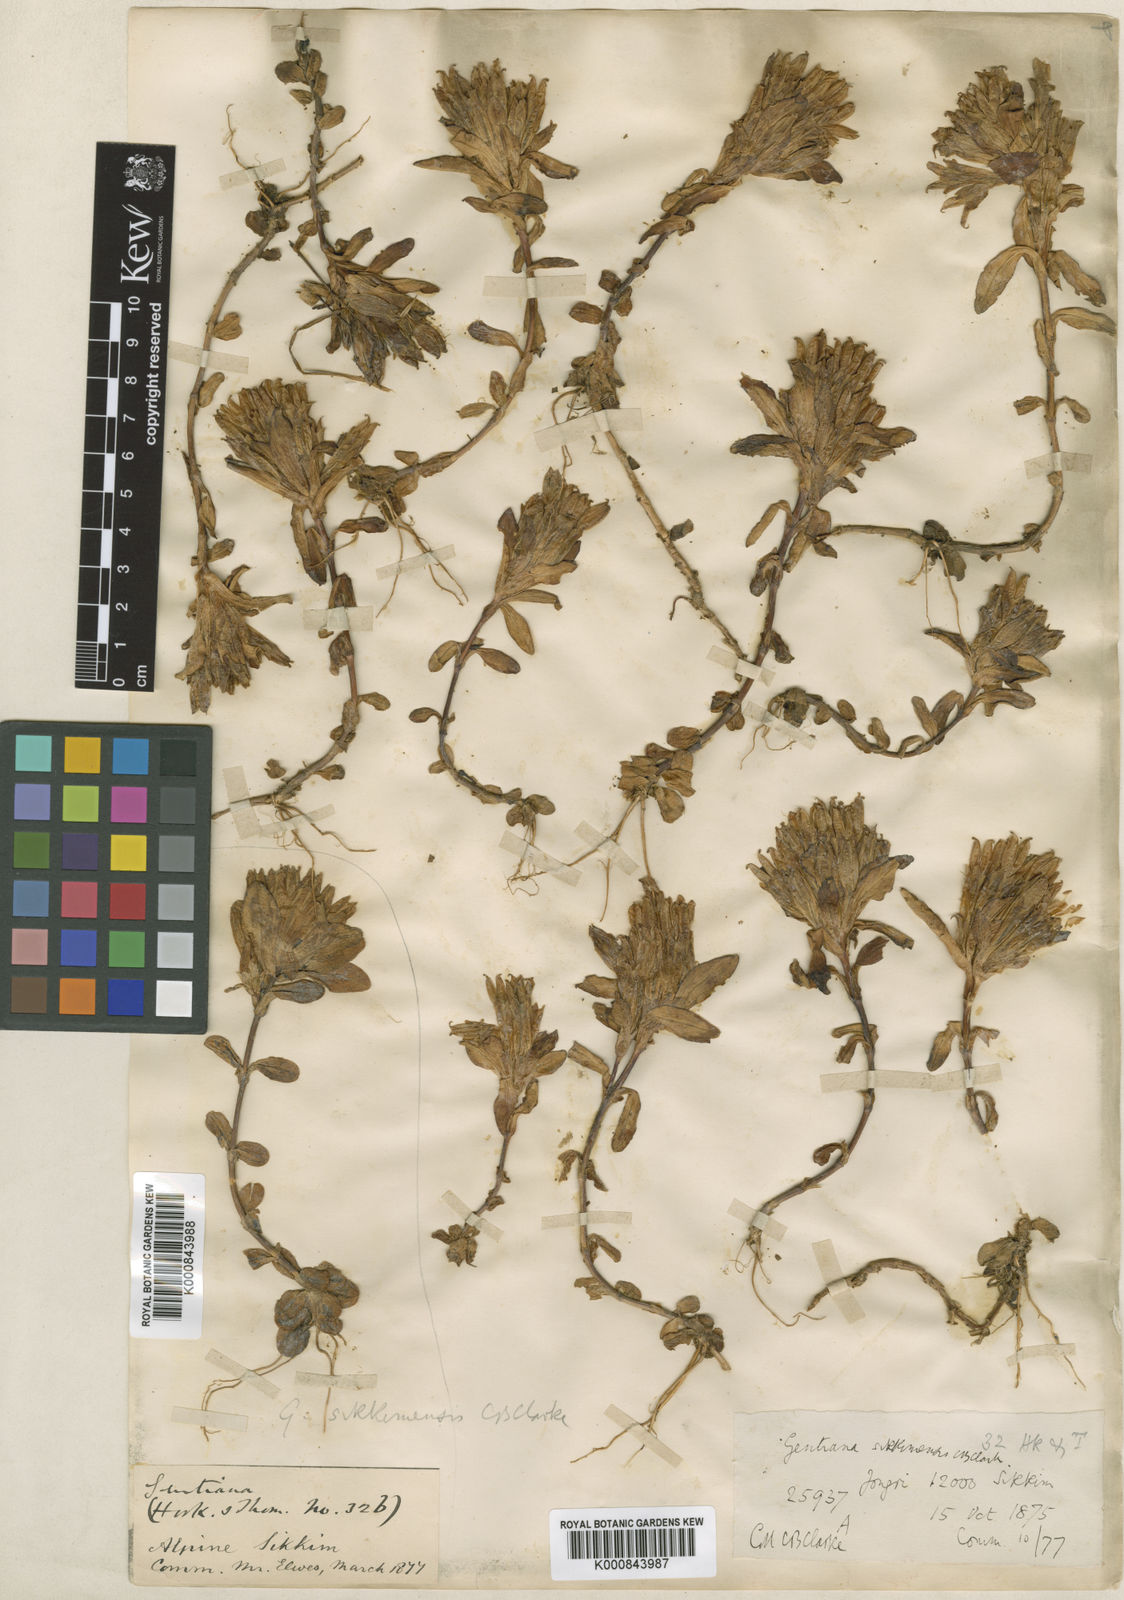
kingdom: Plantae
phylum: Tracheophyta
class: Magnoliopsida
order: Gentianales
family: Gentianaceae
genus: Gentiana
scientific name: Gentiana sikkimensis
